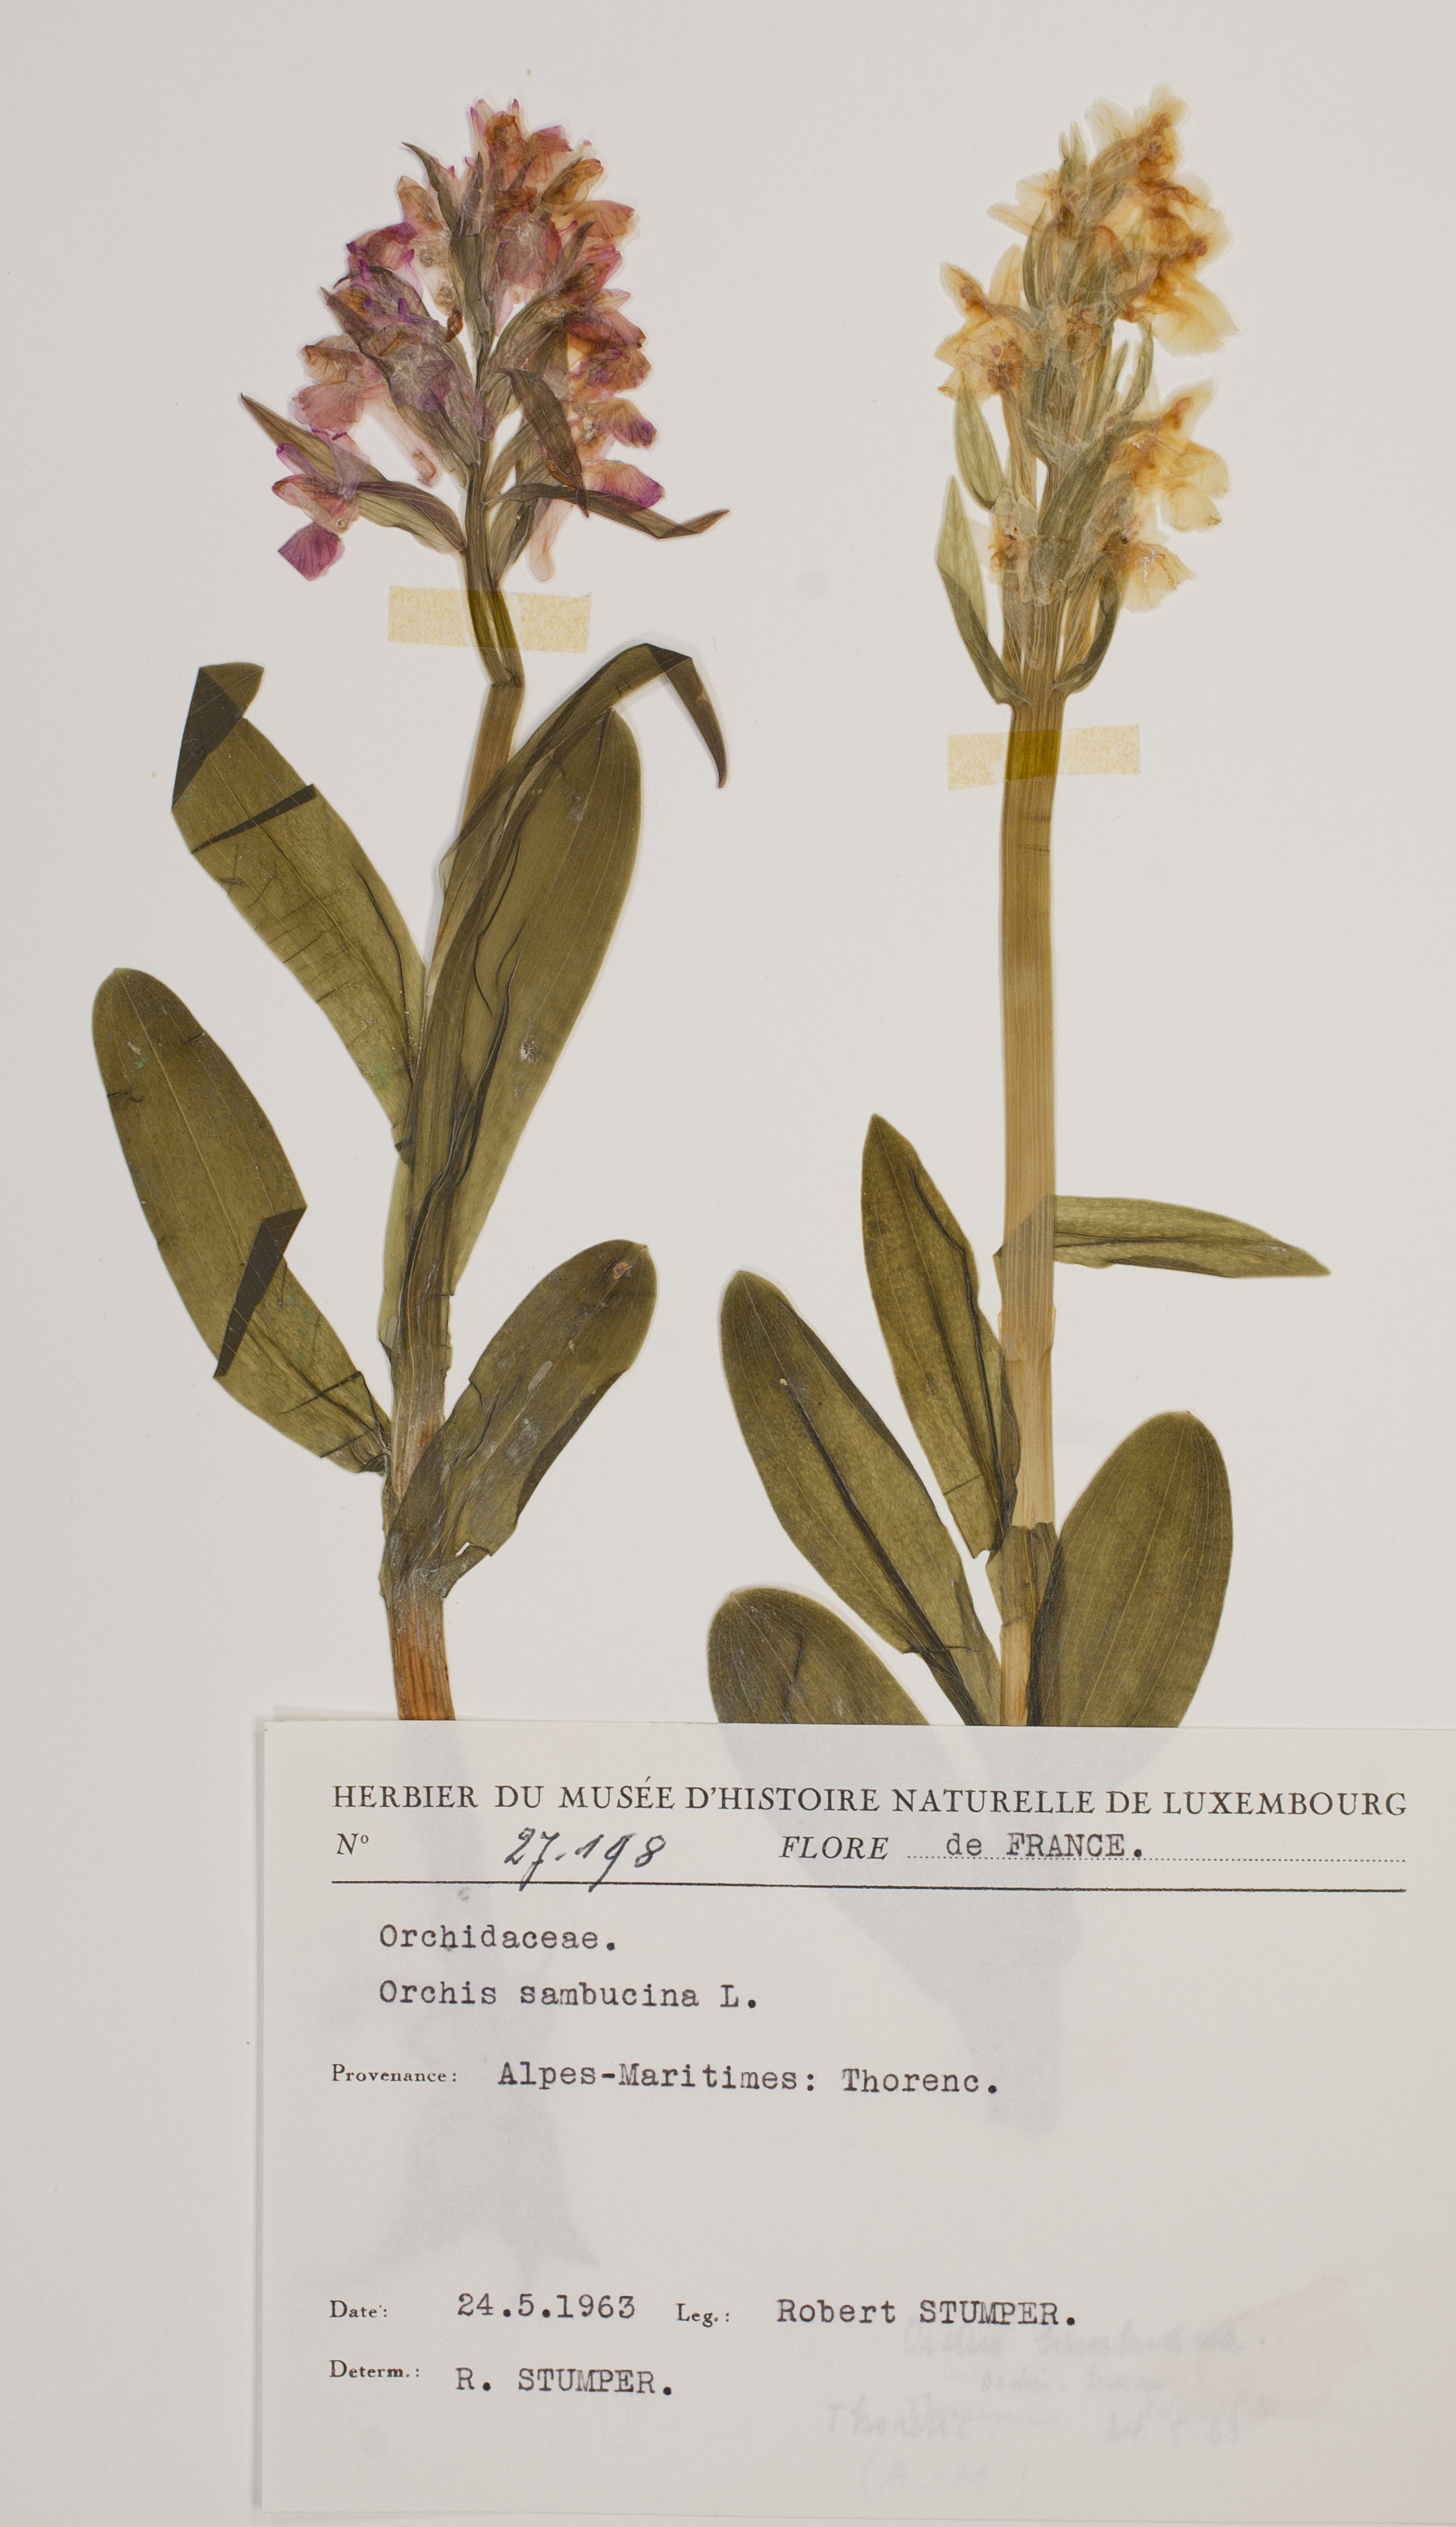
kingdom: Plantae
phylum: Tracheophyta
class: Liliopsida
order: Asparagales
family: Orchidaceae
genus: Dactylorhiza
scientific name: Dactylorhiza sambucina
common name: Elder-flowered orchid
